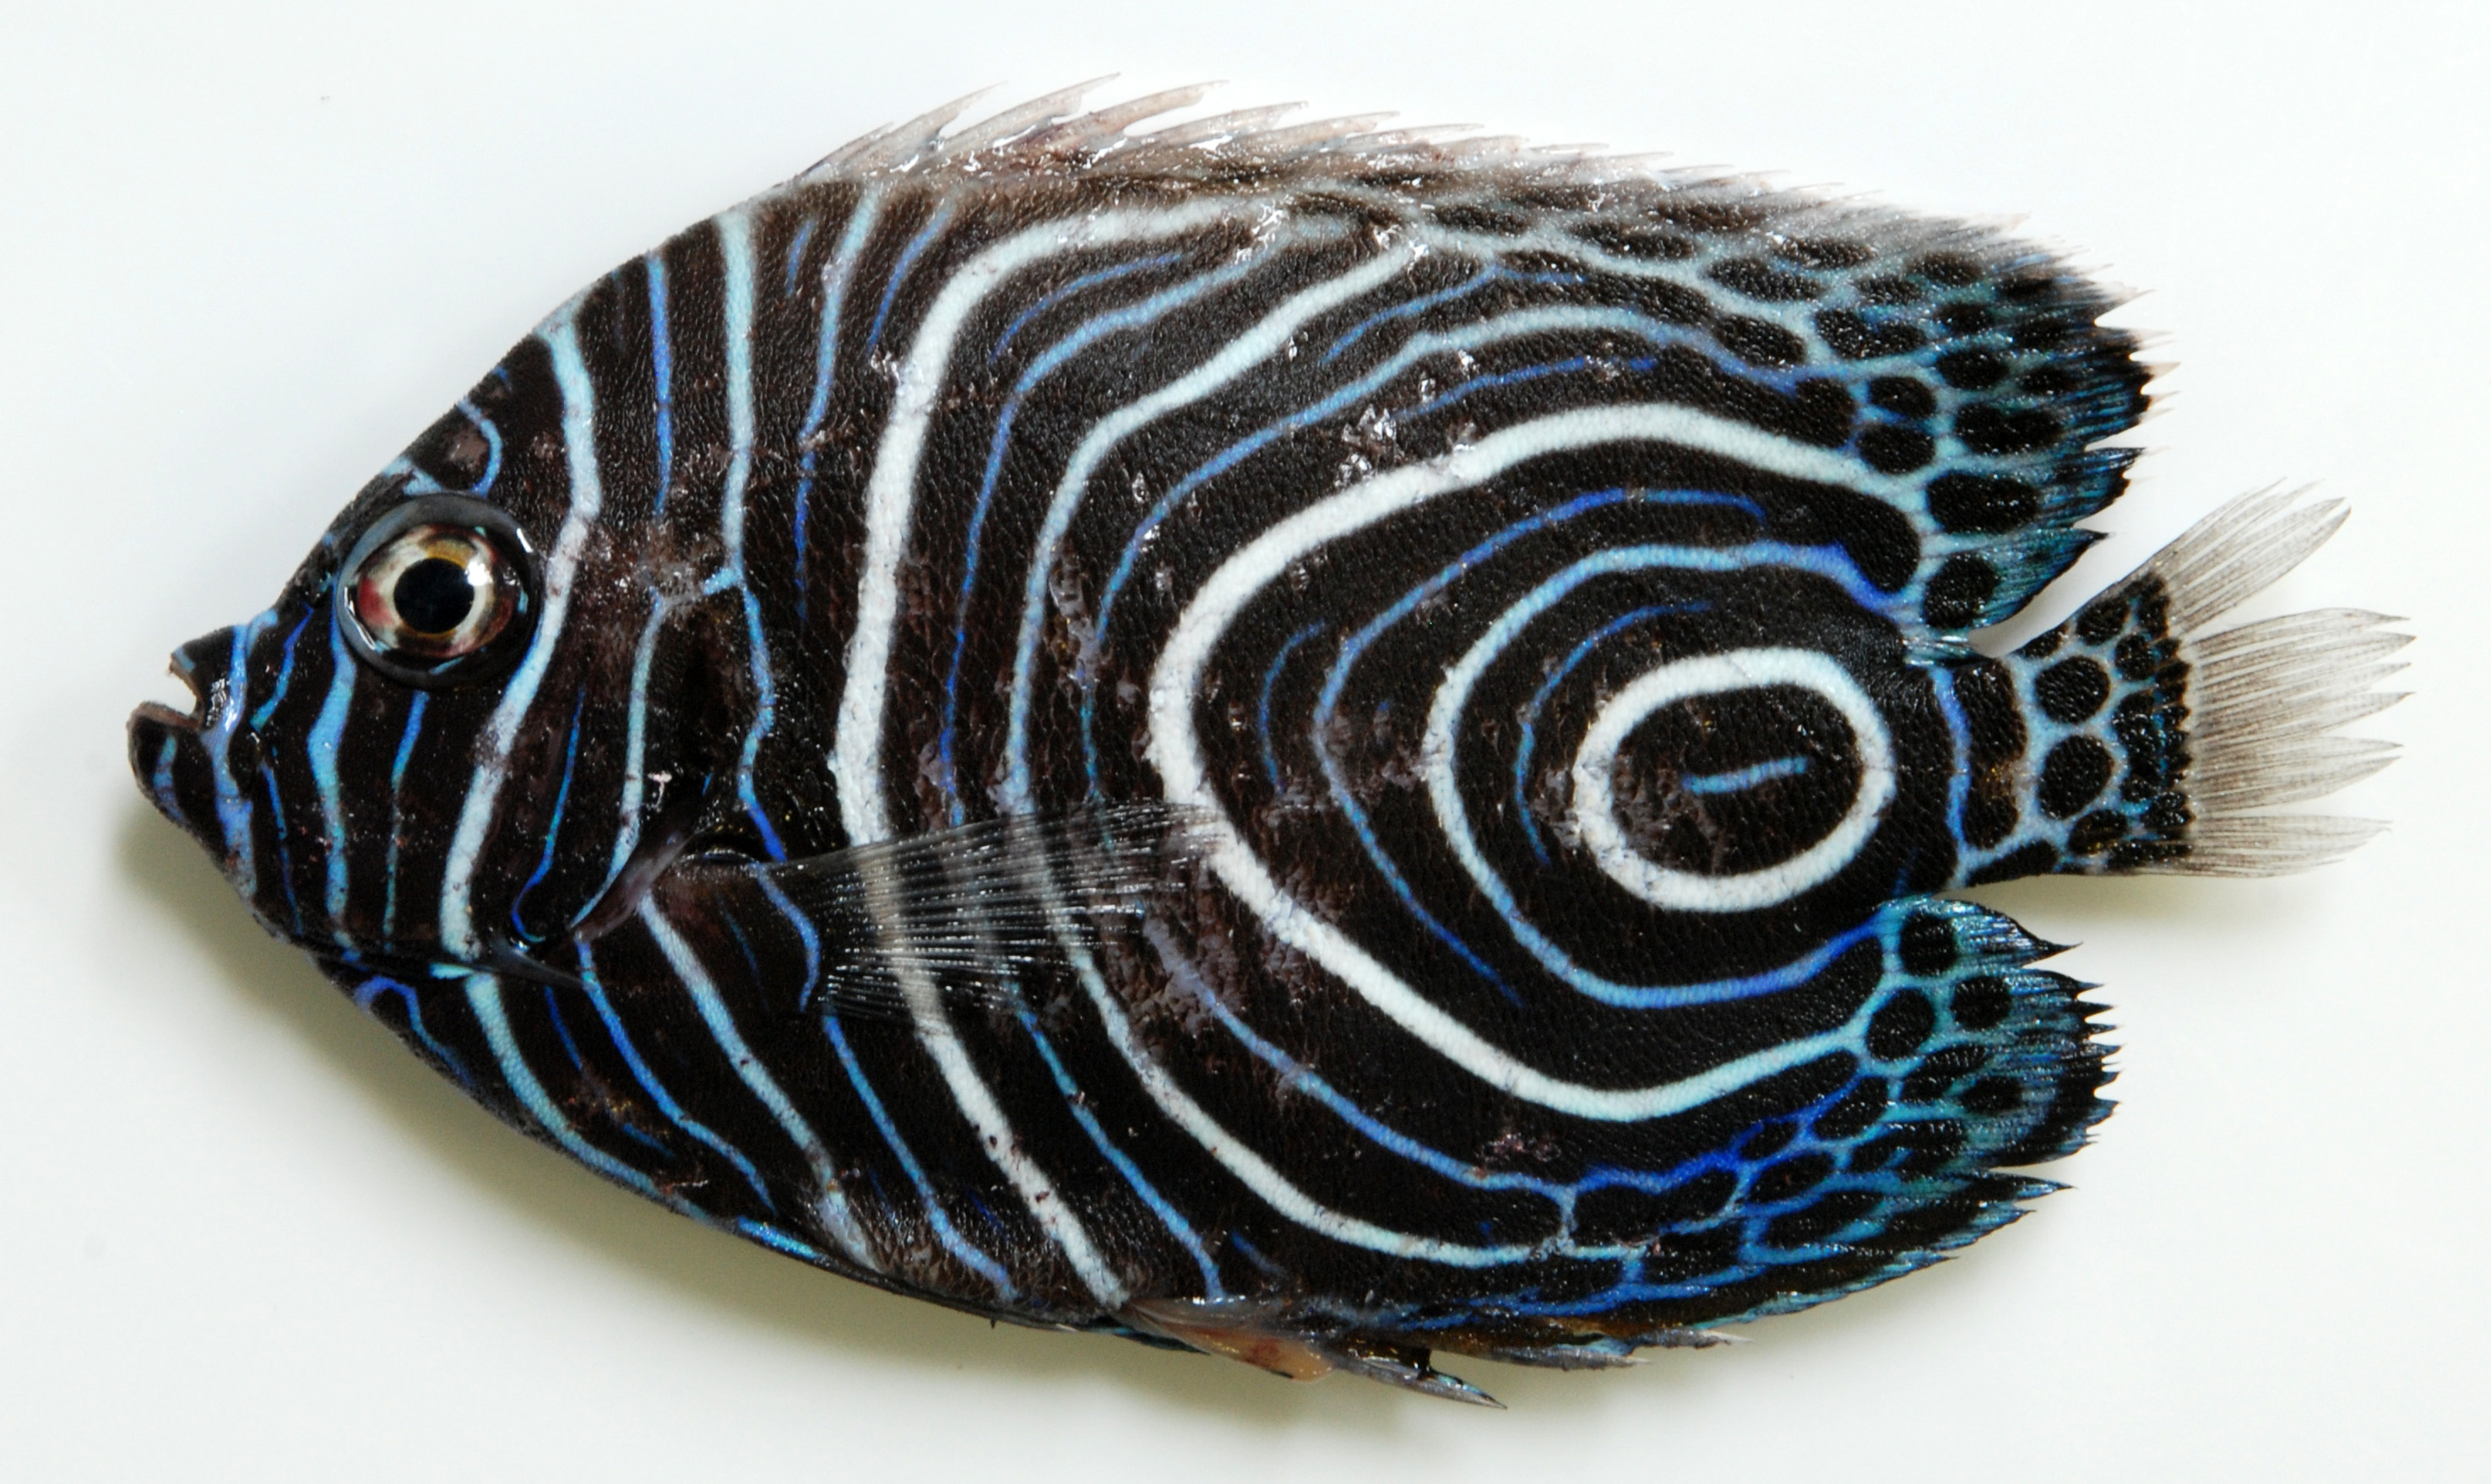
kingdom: Animalia
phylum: Chordata
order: Perciformes
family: Pomacanthidae
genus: Pomacanthus
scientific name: Pomacanthus imperator
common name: Emperor angelfish
